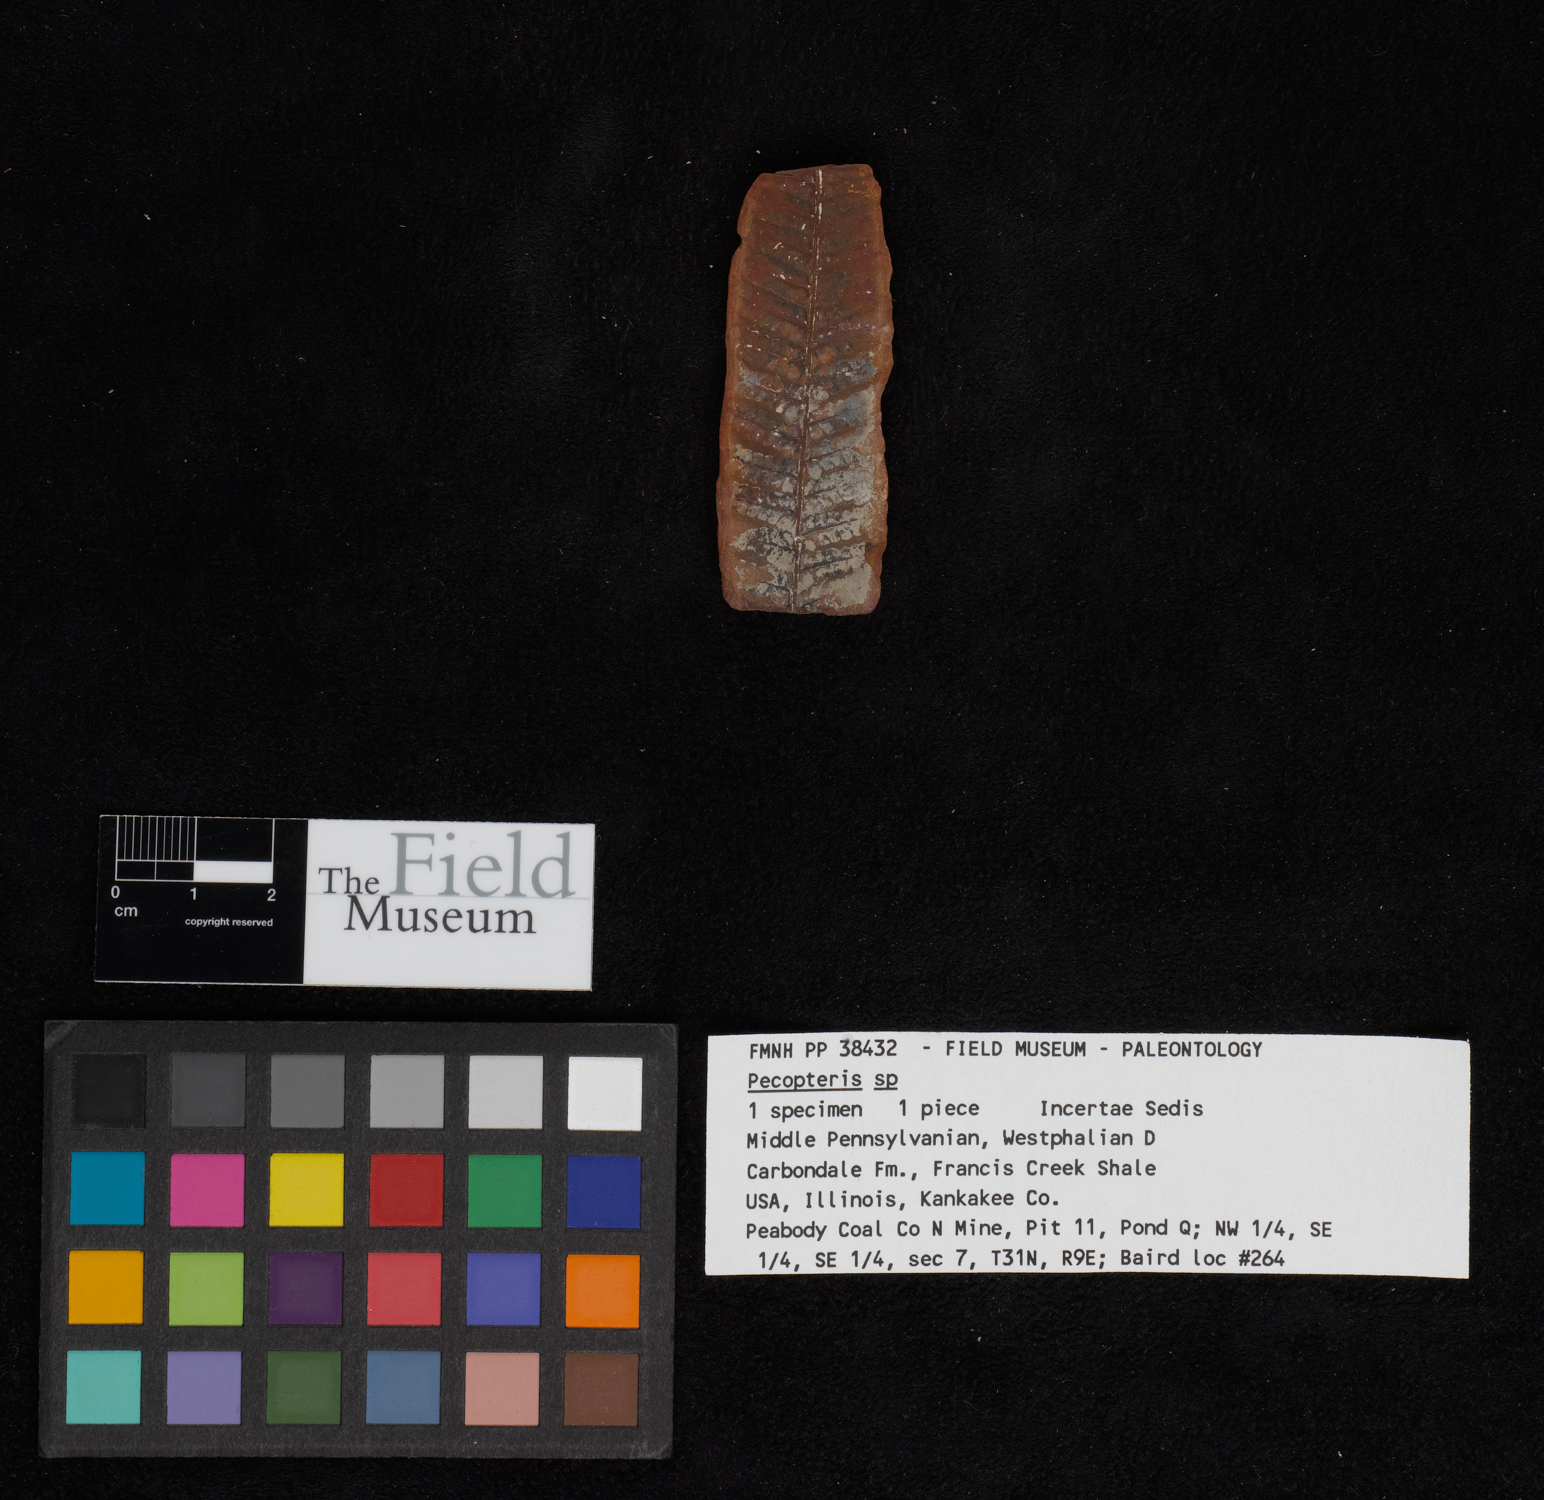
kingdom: Plantae
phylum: Tracheophyta
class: Polypodiopsida
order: Marattiales
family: Asterothecaceae
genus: Pecopteris
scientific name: Pecopteris
